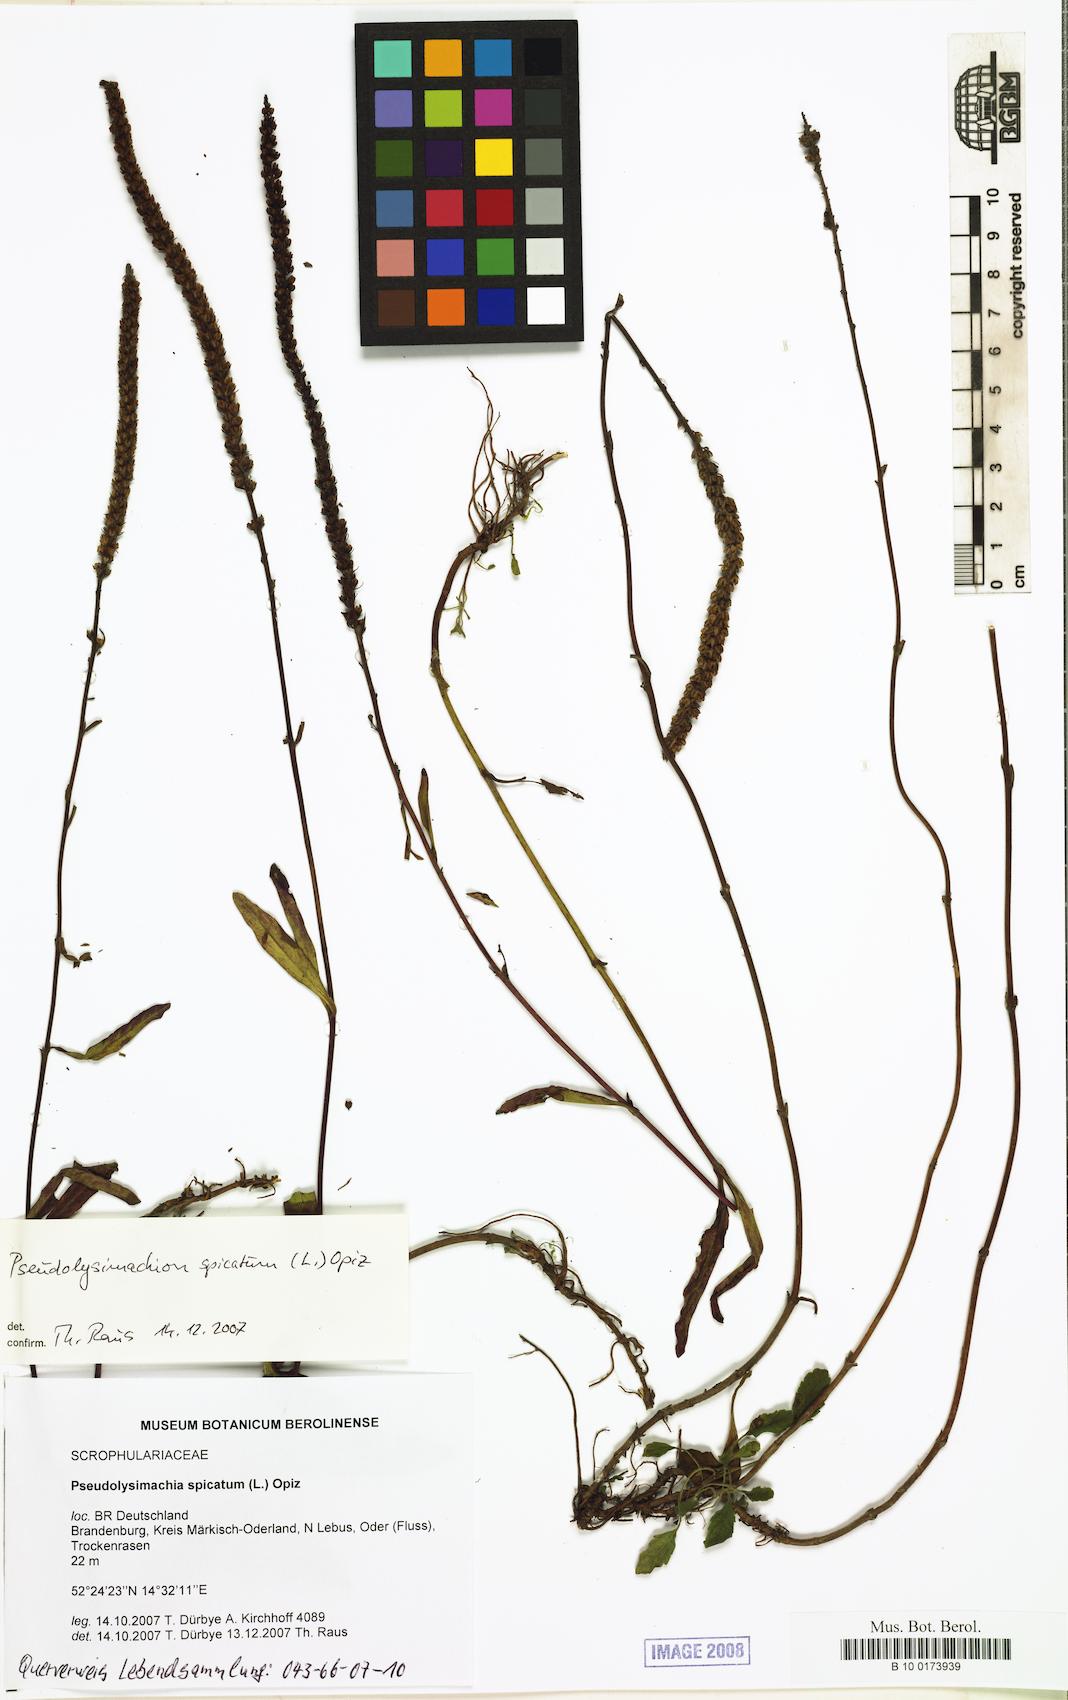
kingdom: Plantae
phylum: Tracheophyta
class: Magnoliopsida
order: Lamiales
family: Plantaginaceae
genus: Veronica
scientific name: Veronica spicata
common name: Spiked speedwell
